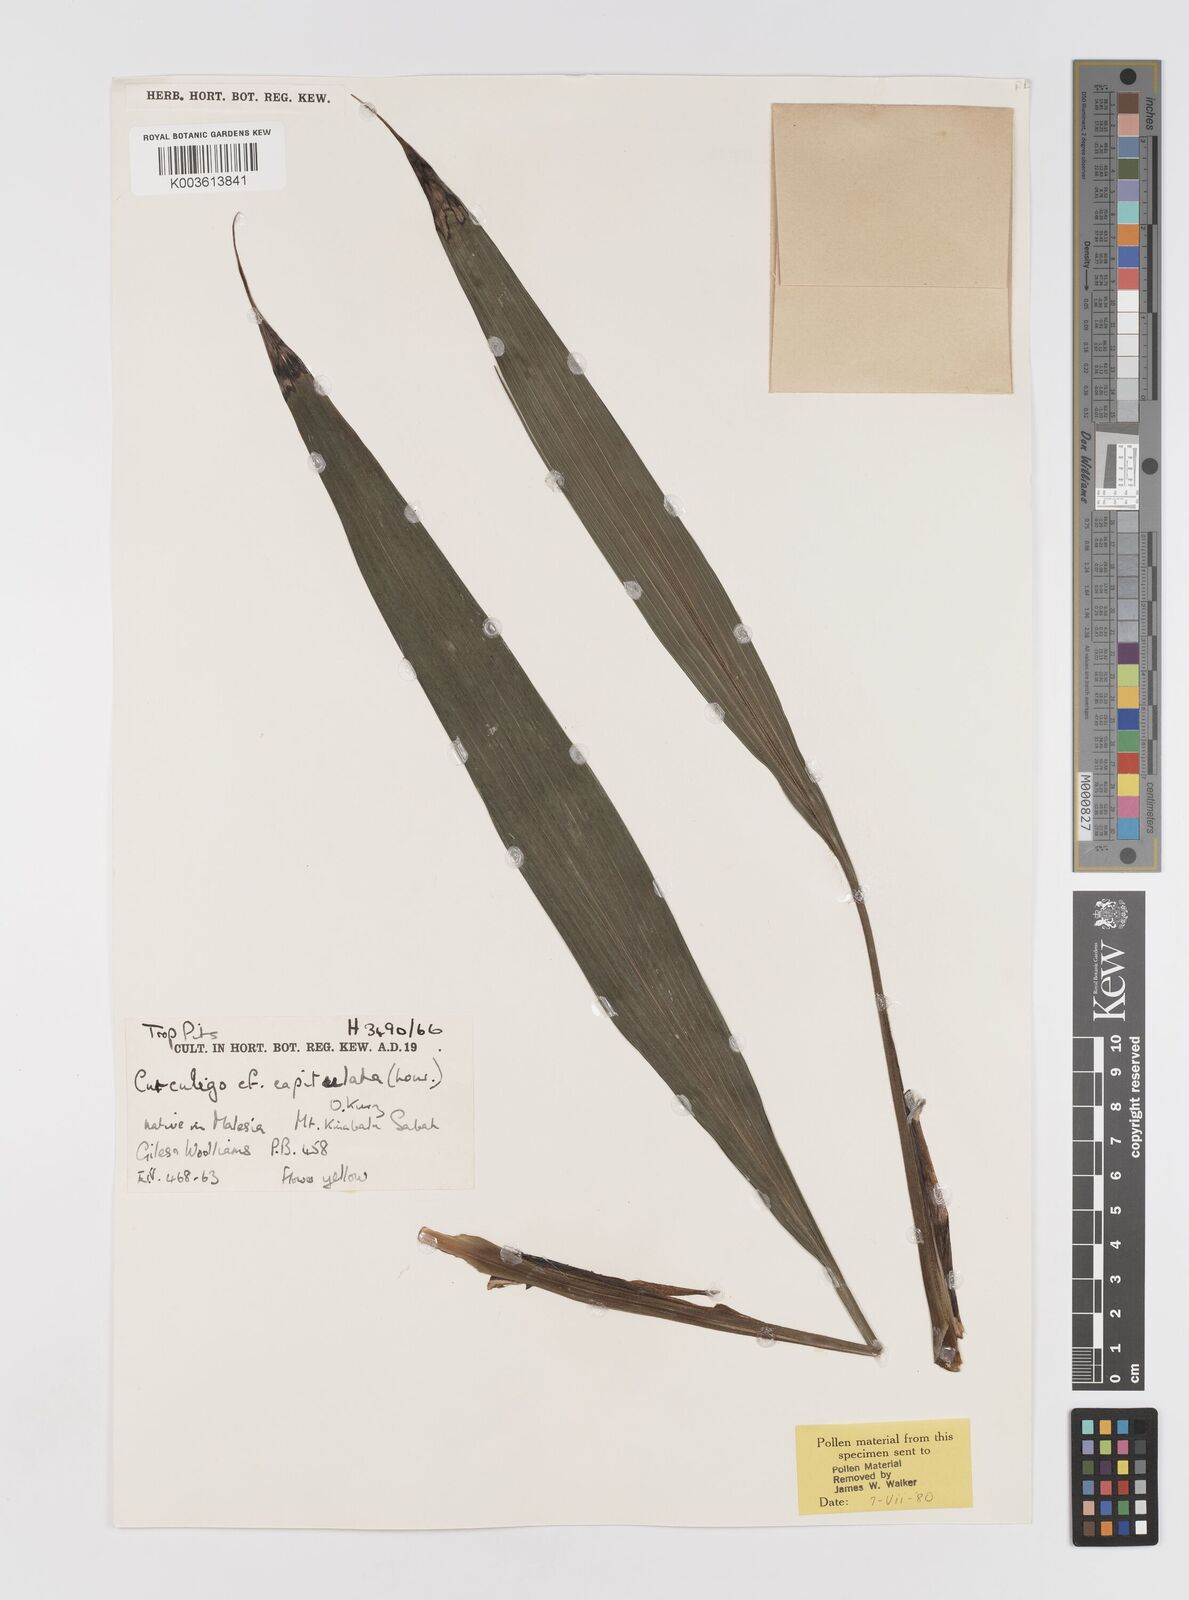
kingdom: Plantae
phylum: Tracheophyta
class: Liliopsida
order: Asparagales
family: Hypoxidaceae
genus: Curculigo
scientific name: Curculigo capitulata
